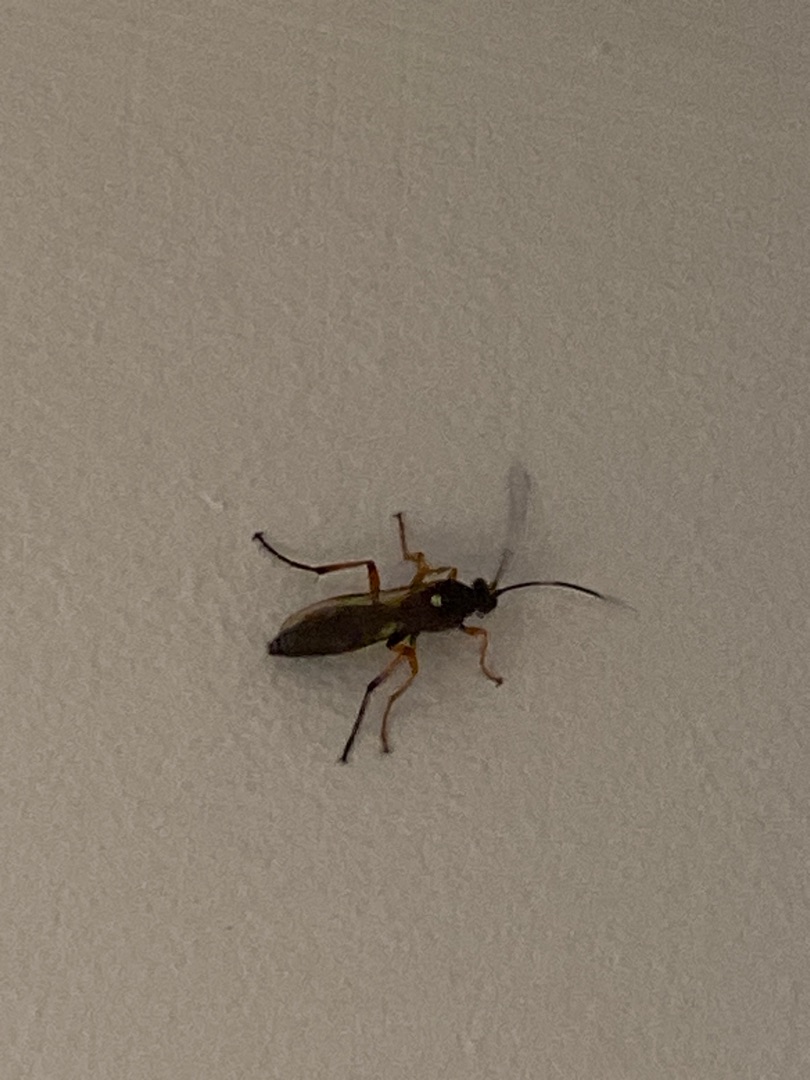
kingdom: Animalia
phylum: Arthropoda
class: Insecta
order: Hymenoptera
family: Ichneumonidae
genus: Diphyus
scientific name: Diphyus quadripunctorius
